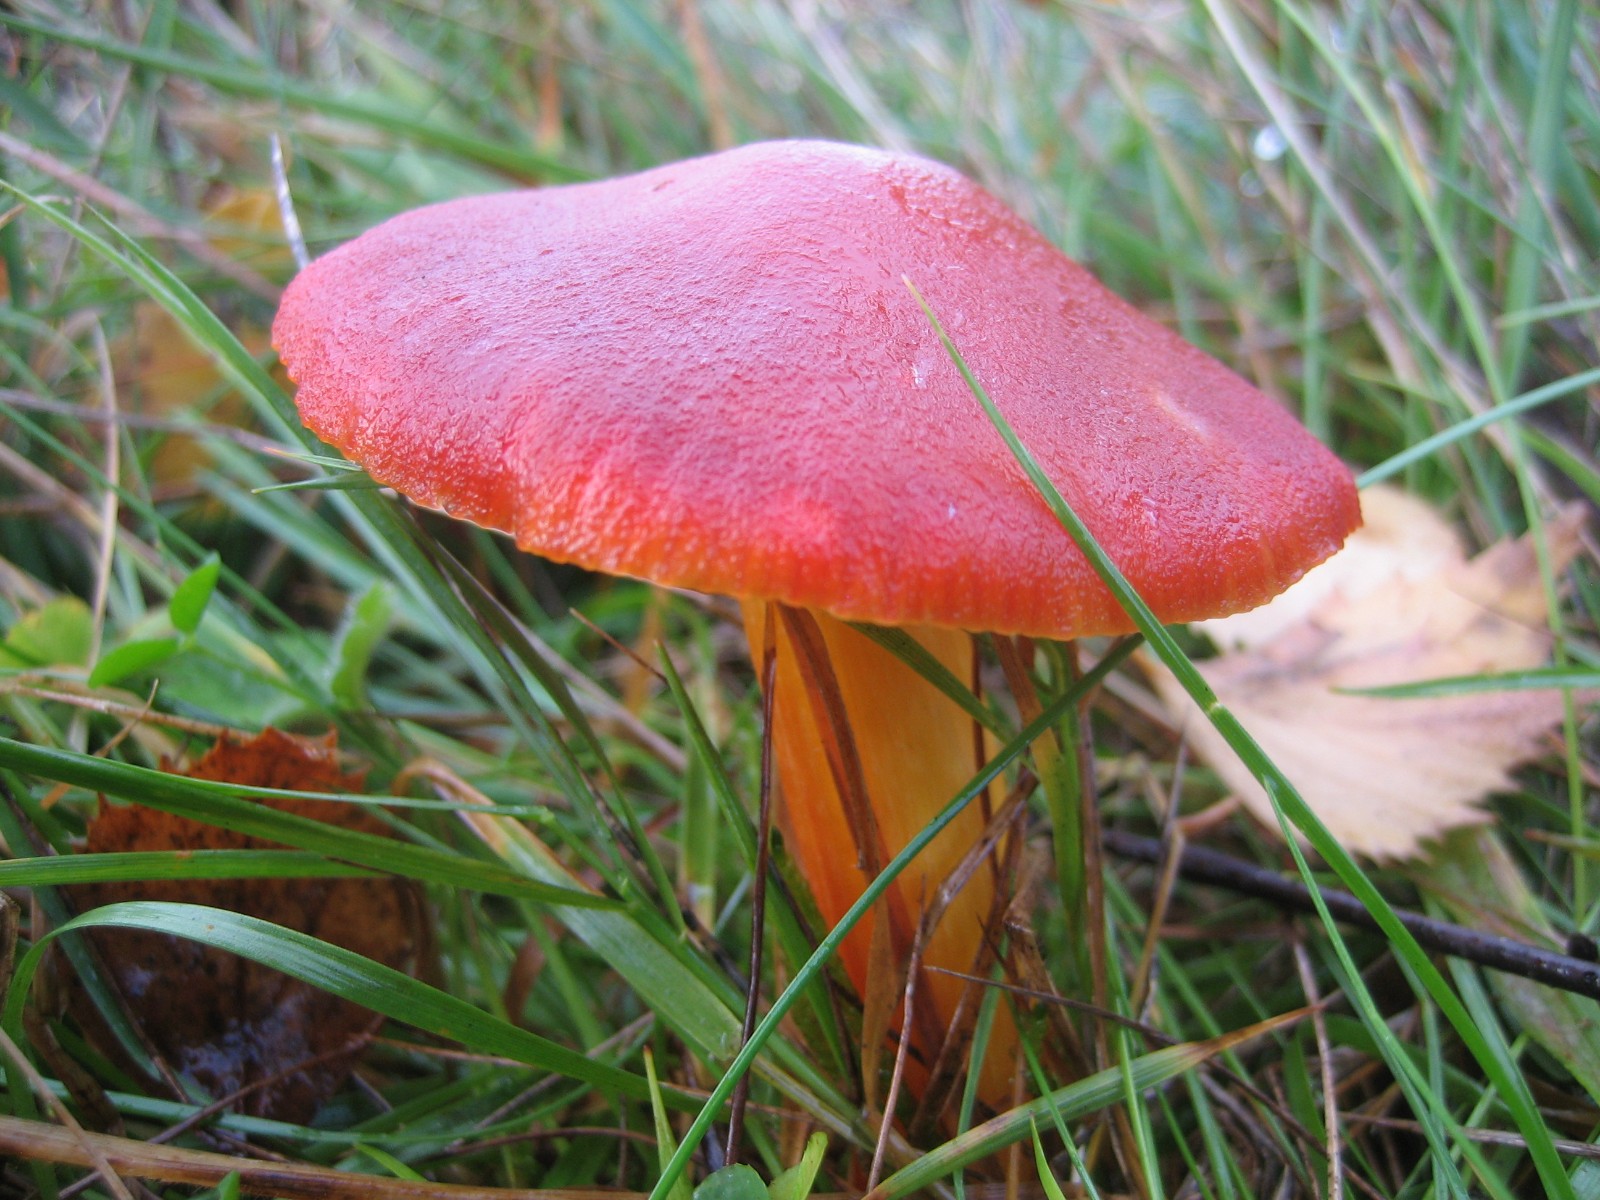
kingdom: Fungi
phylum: Basidiomycota
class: Agaricomycetes
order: Agaricales
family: Hygrophoraceae
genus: Hygrocybe
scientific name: Hygrocybe punicea
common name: skarlagen-vokshat
